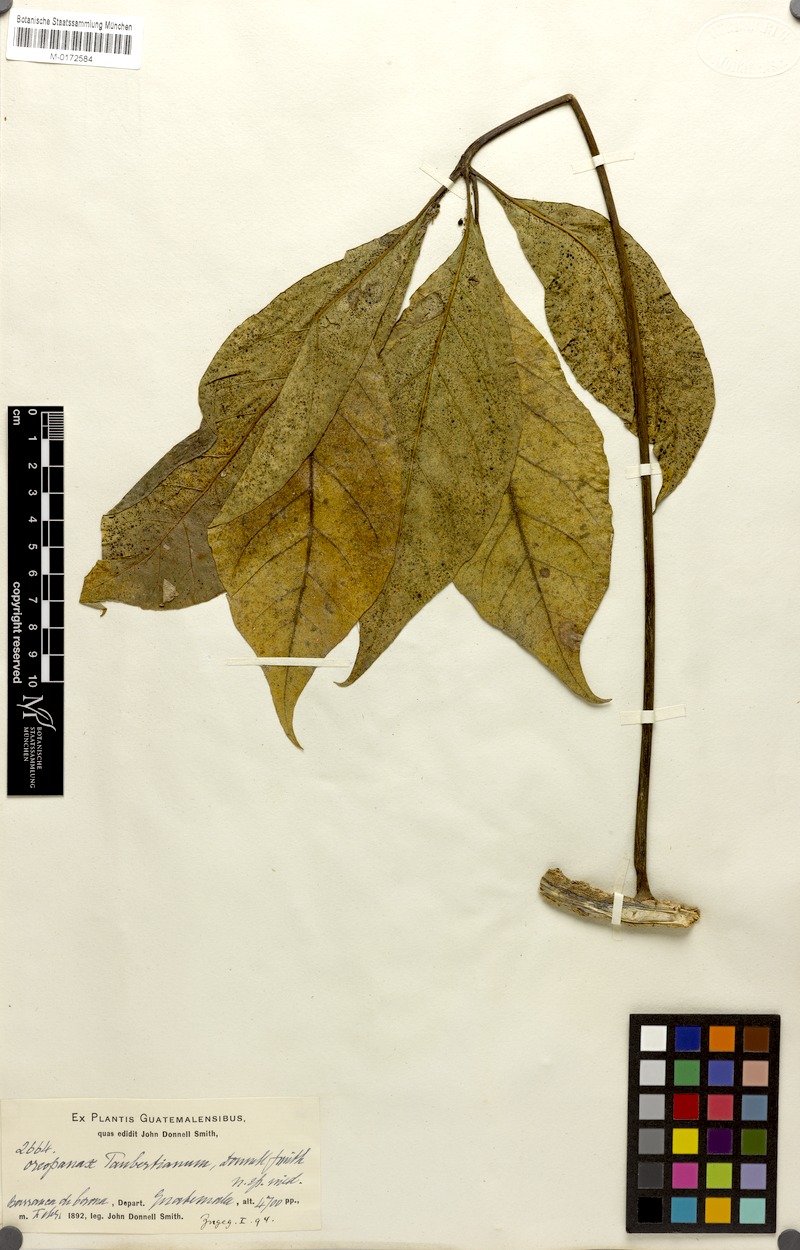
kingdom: Plantae
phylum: Tracheophyta
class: Magnoliopsida
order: Apiales
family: Araliaceae
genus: Oreopanax
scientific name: Oreopanax xalapensis
